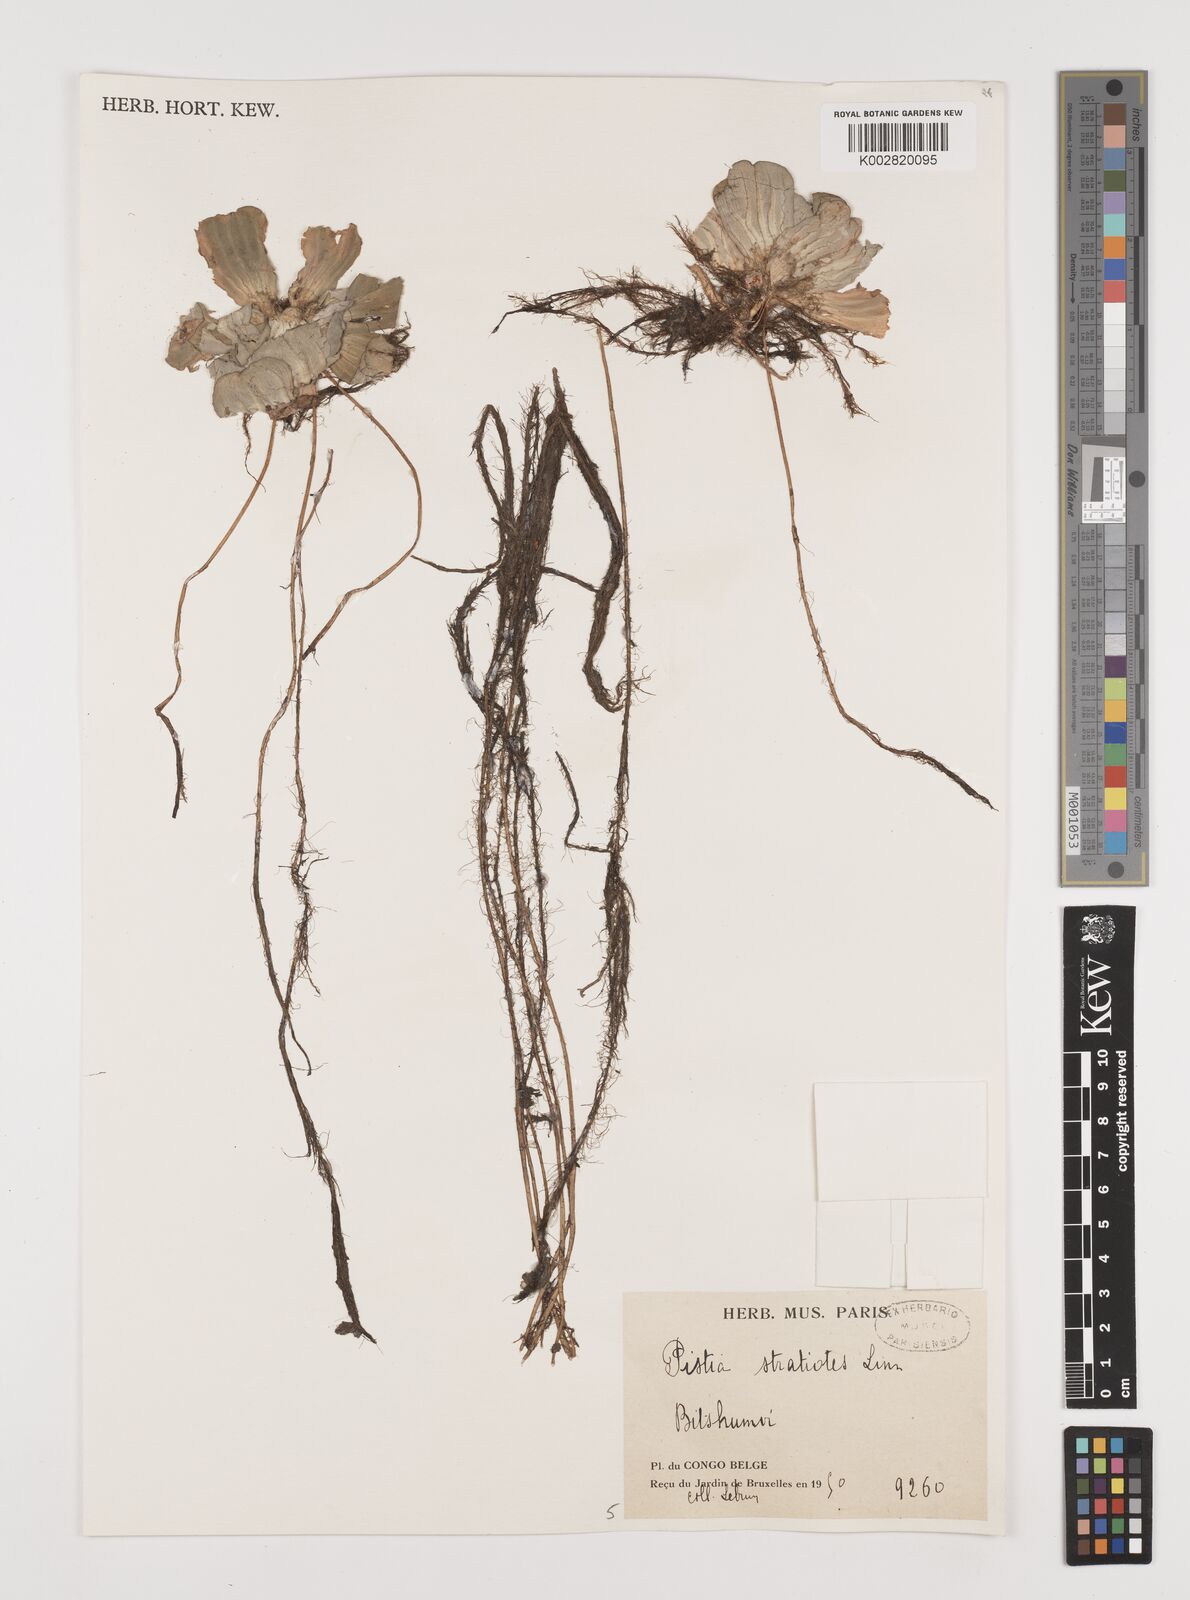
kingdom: Plantae
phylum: Tracheophyta
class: Liliopsida
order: Alismatales
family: Araceae
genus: Pistia
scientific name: Pistia stratiotes
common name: Water lettuce
